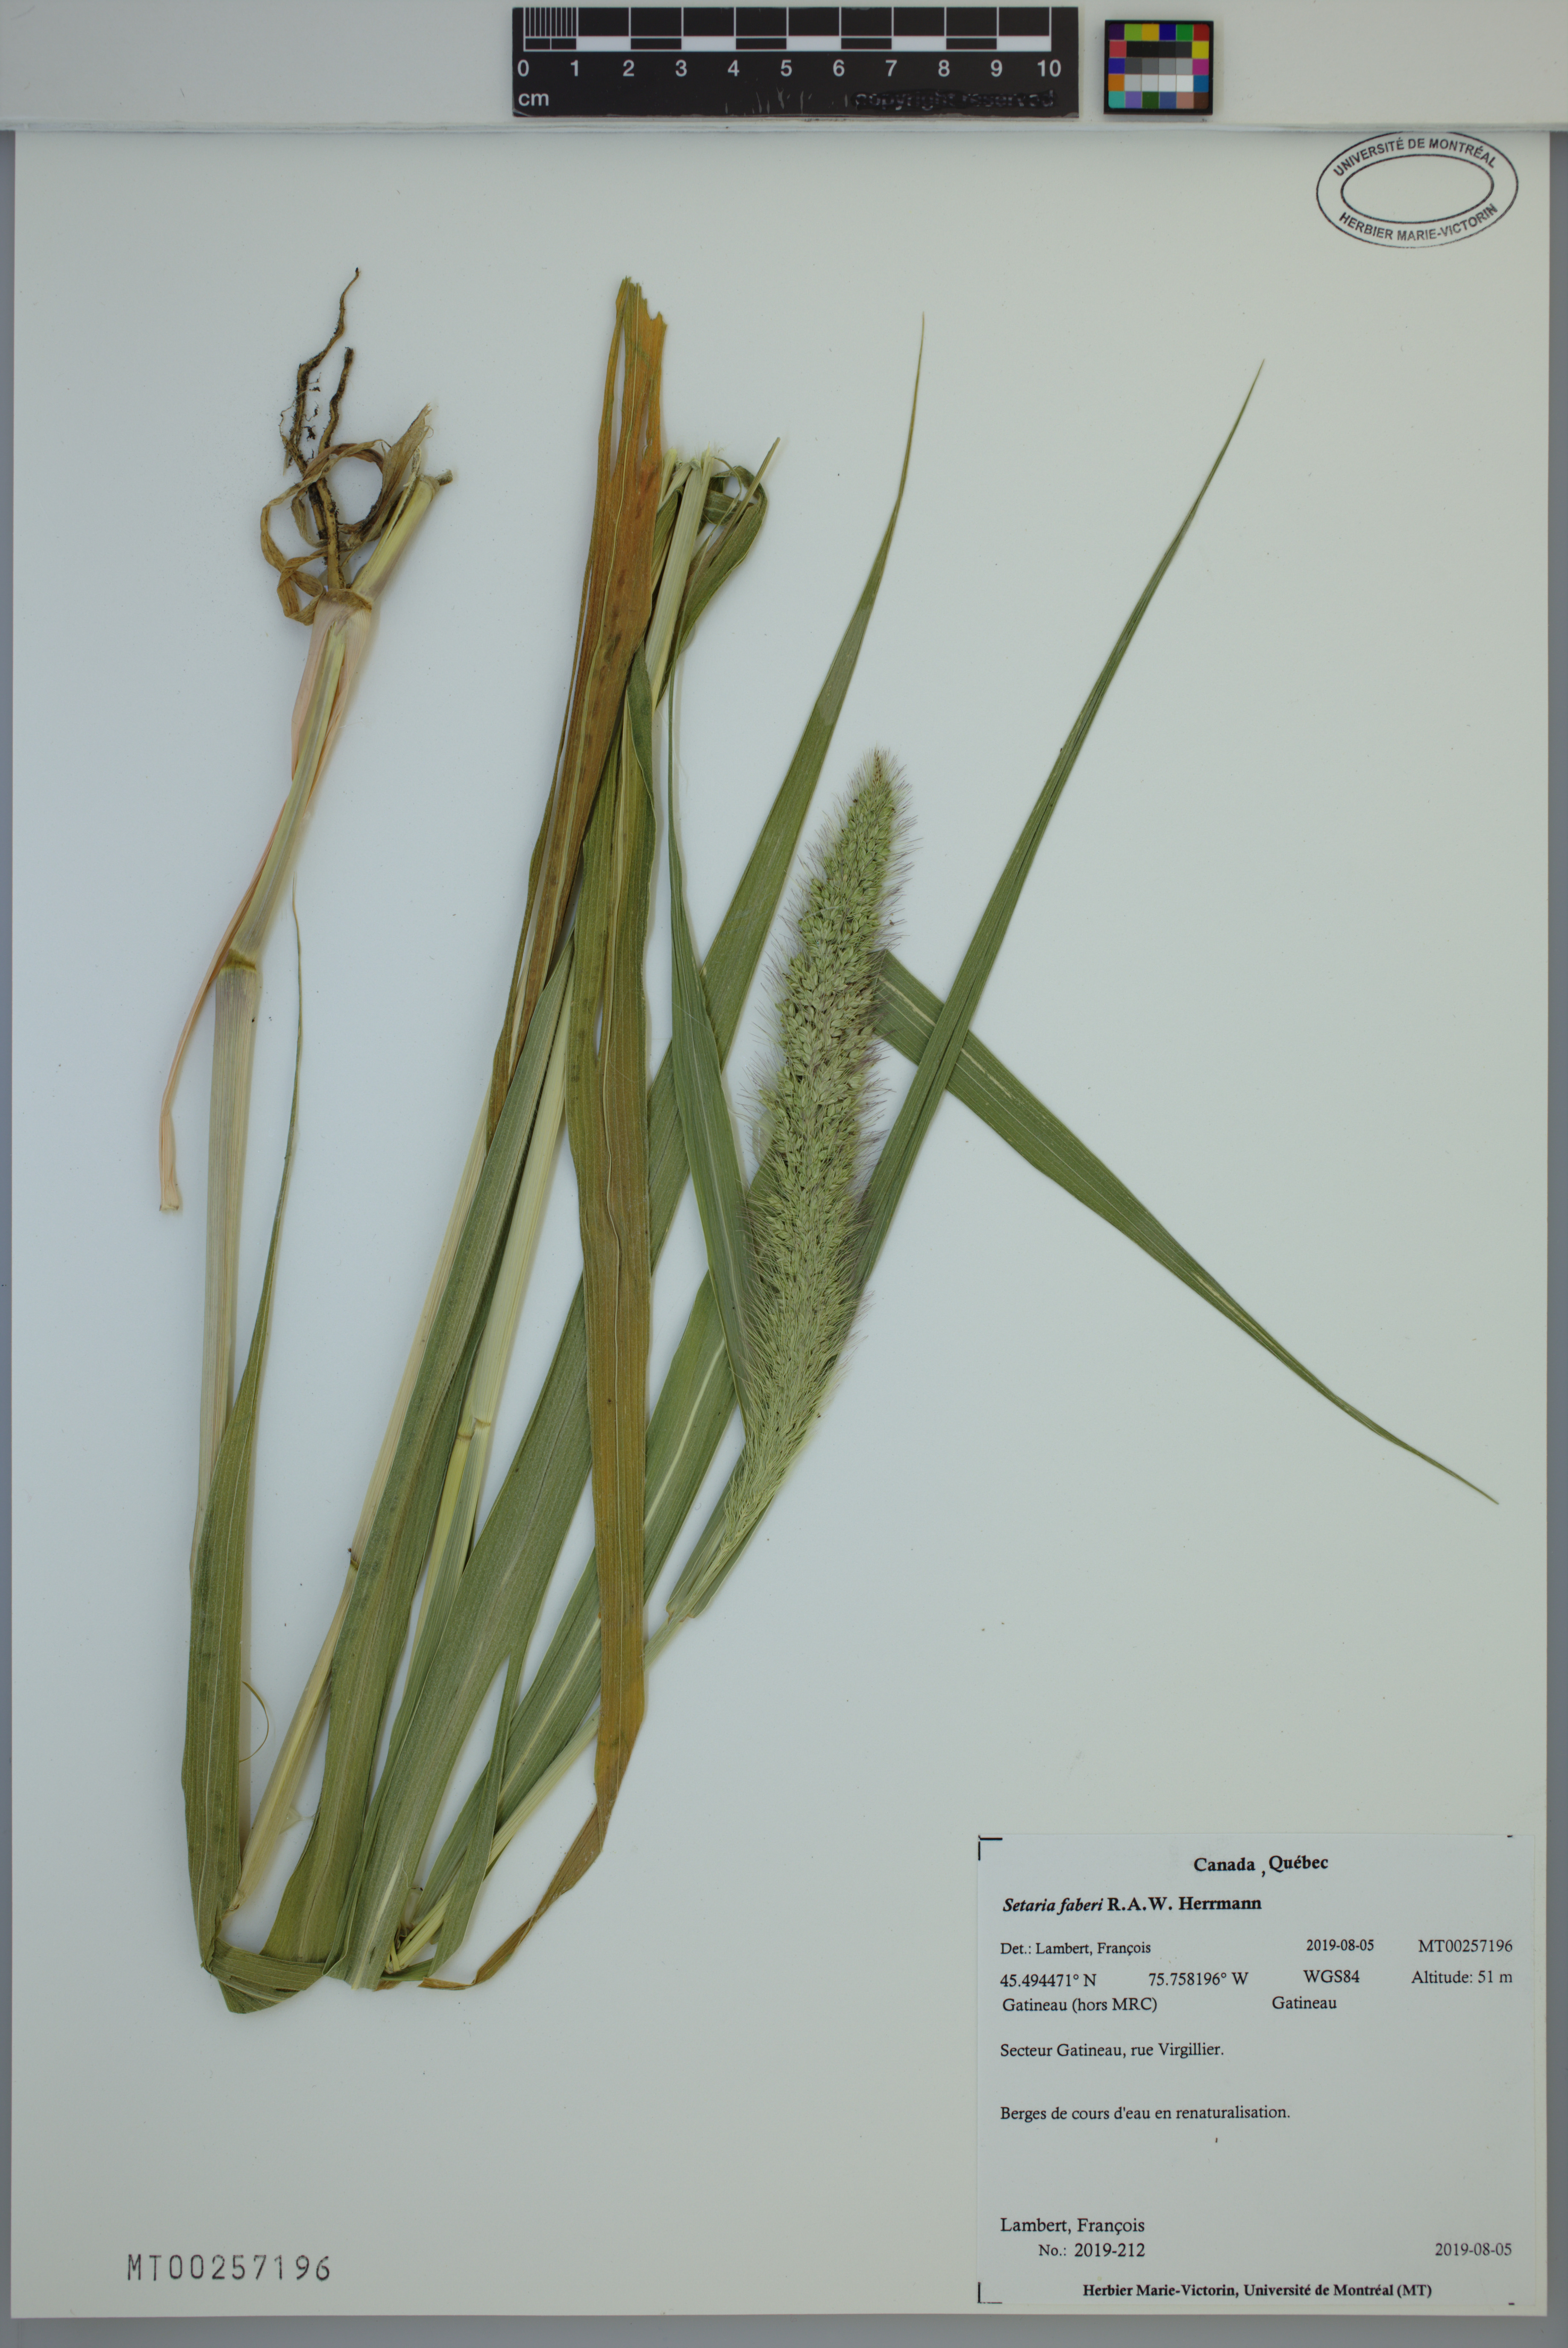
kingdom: Plantae
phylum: Tracheophyta
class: Liliopsida
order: Poales
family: Poaceae
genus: Setaria
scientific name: Setaria faberi
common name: Nodding bristle-grass
